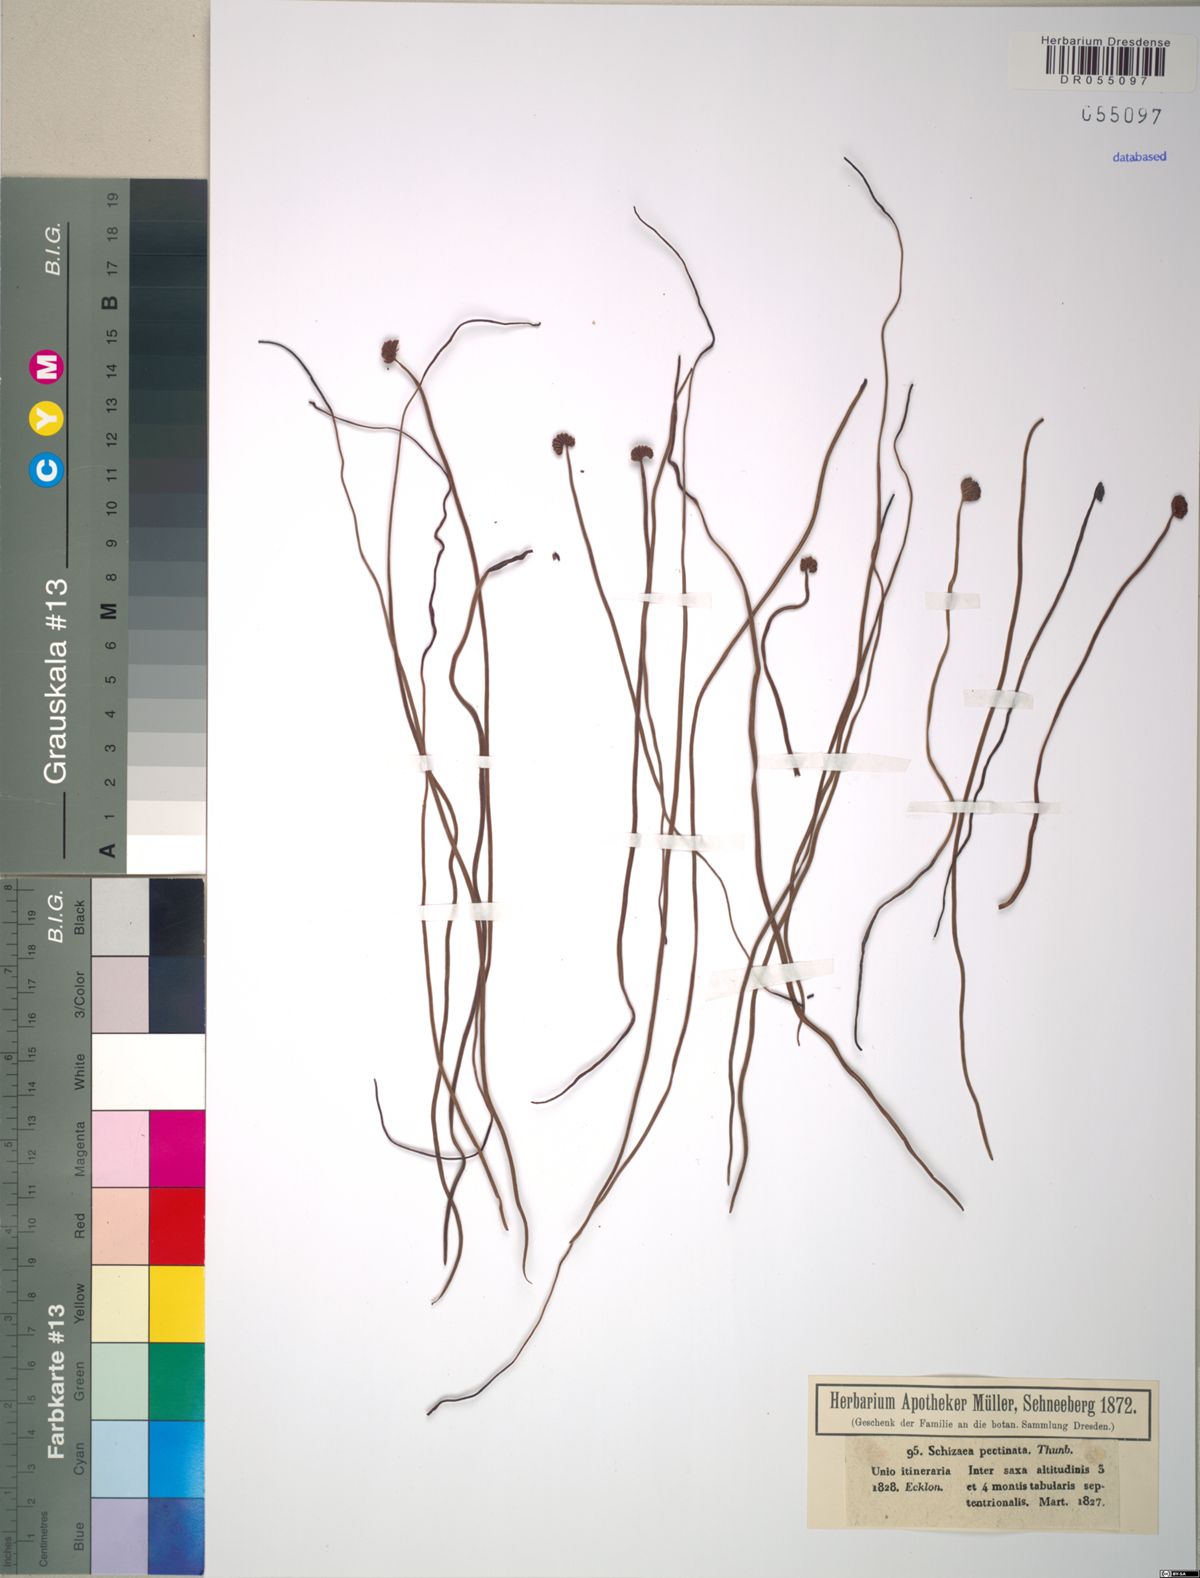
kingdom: Plantae
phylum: Tracheophyta
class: Polypodiopsida
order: Schizaeales
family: Schizaeaceae
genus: Schizaea
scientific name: Schizaea pectinata
